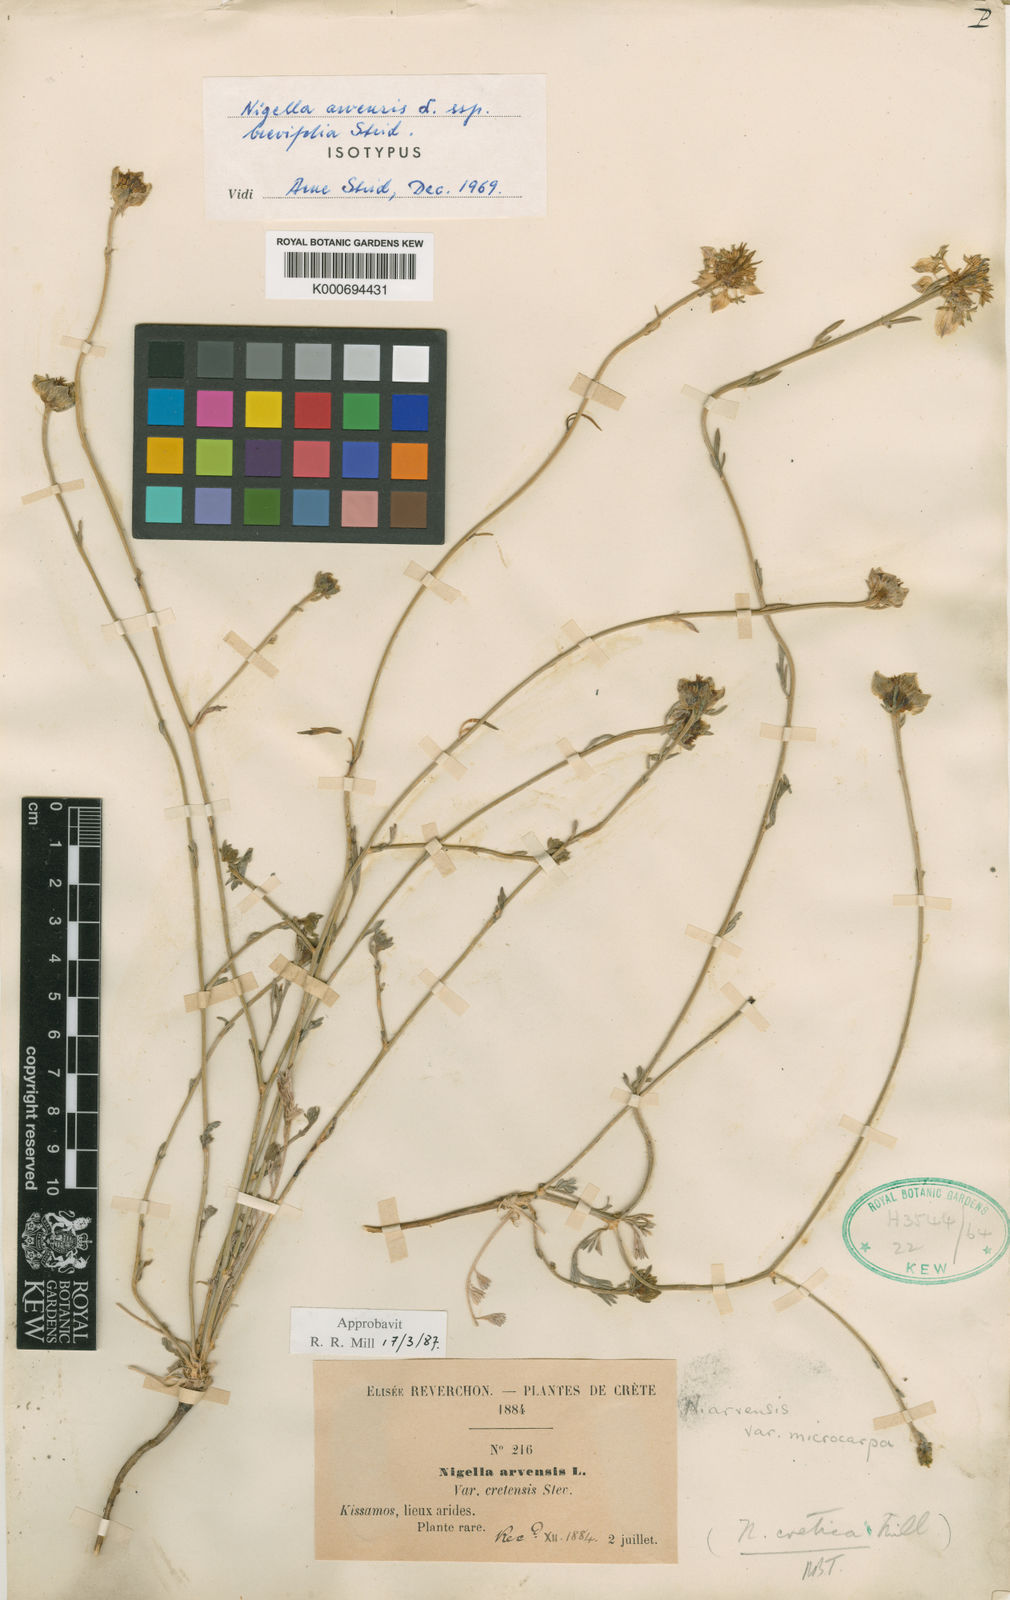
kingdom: Plantae
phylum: Tracheophyta
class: Magnoliopsida
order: Ranunculales
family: Ranunculaceae
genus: Nigella
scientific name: Nigella arvensis
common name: Wild fennel-flower
